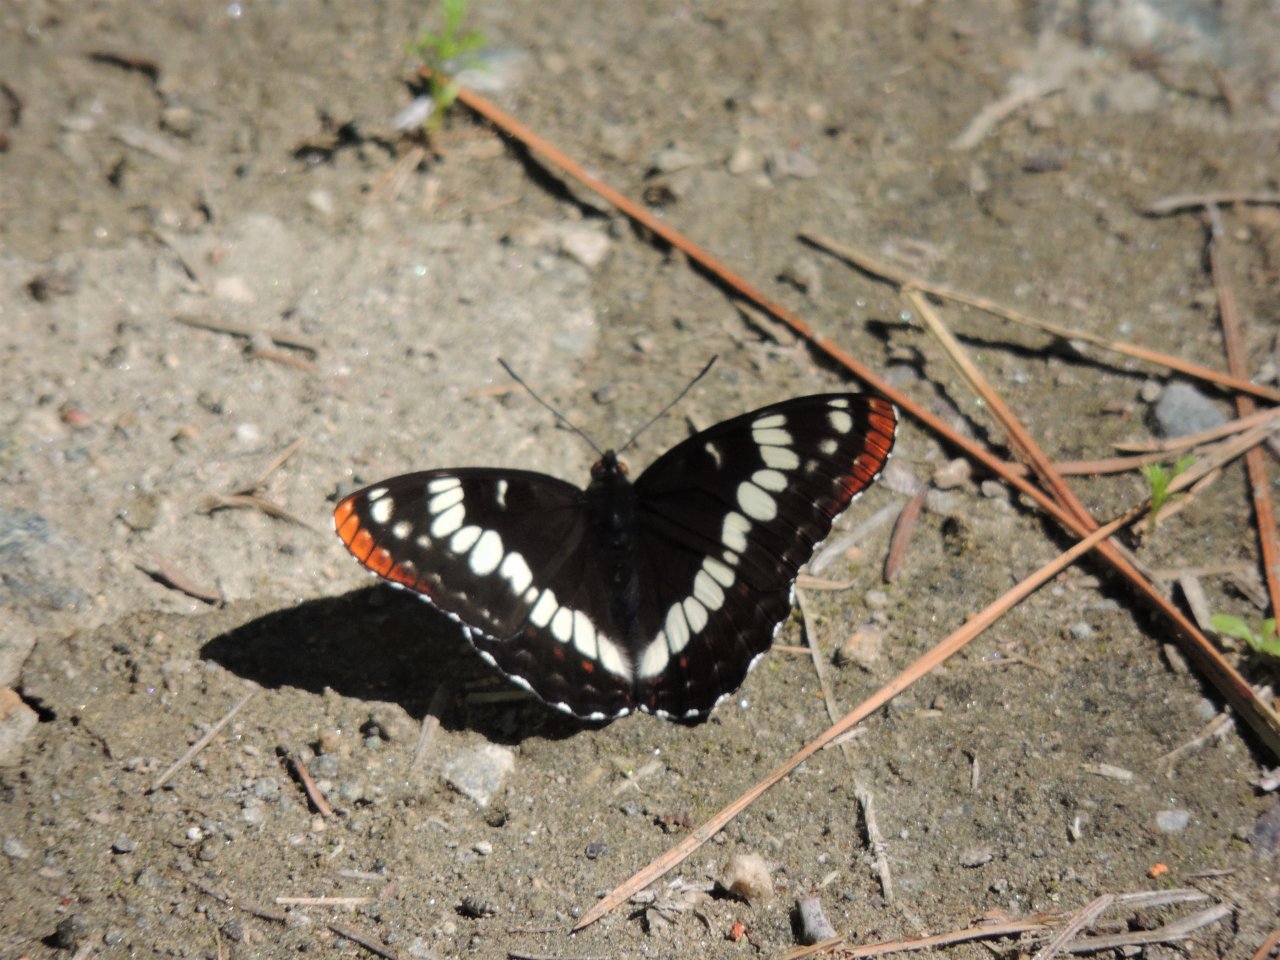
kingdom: Animalia
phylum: Arthropoda
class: Insecta
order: Lepidoptera
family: Nymphalidae
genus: Limenitis
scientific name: Limenitis lorquini
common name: Lorquin's Admiral
